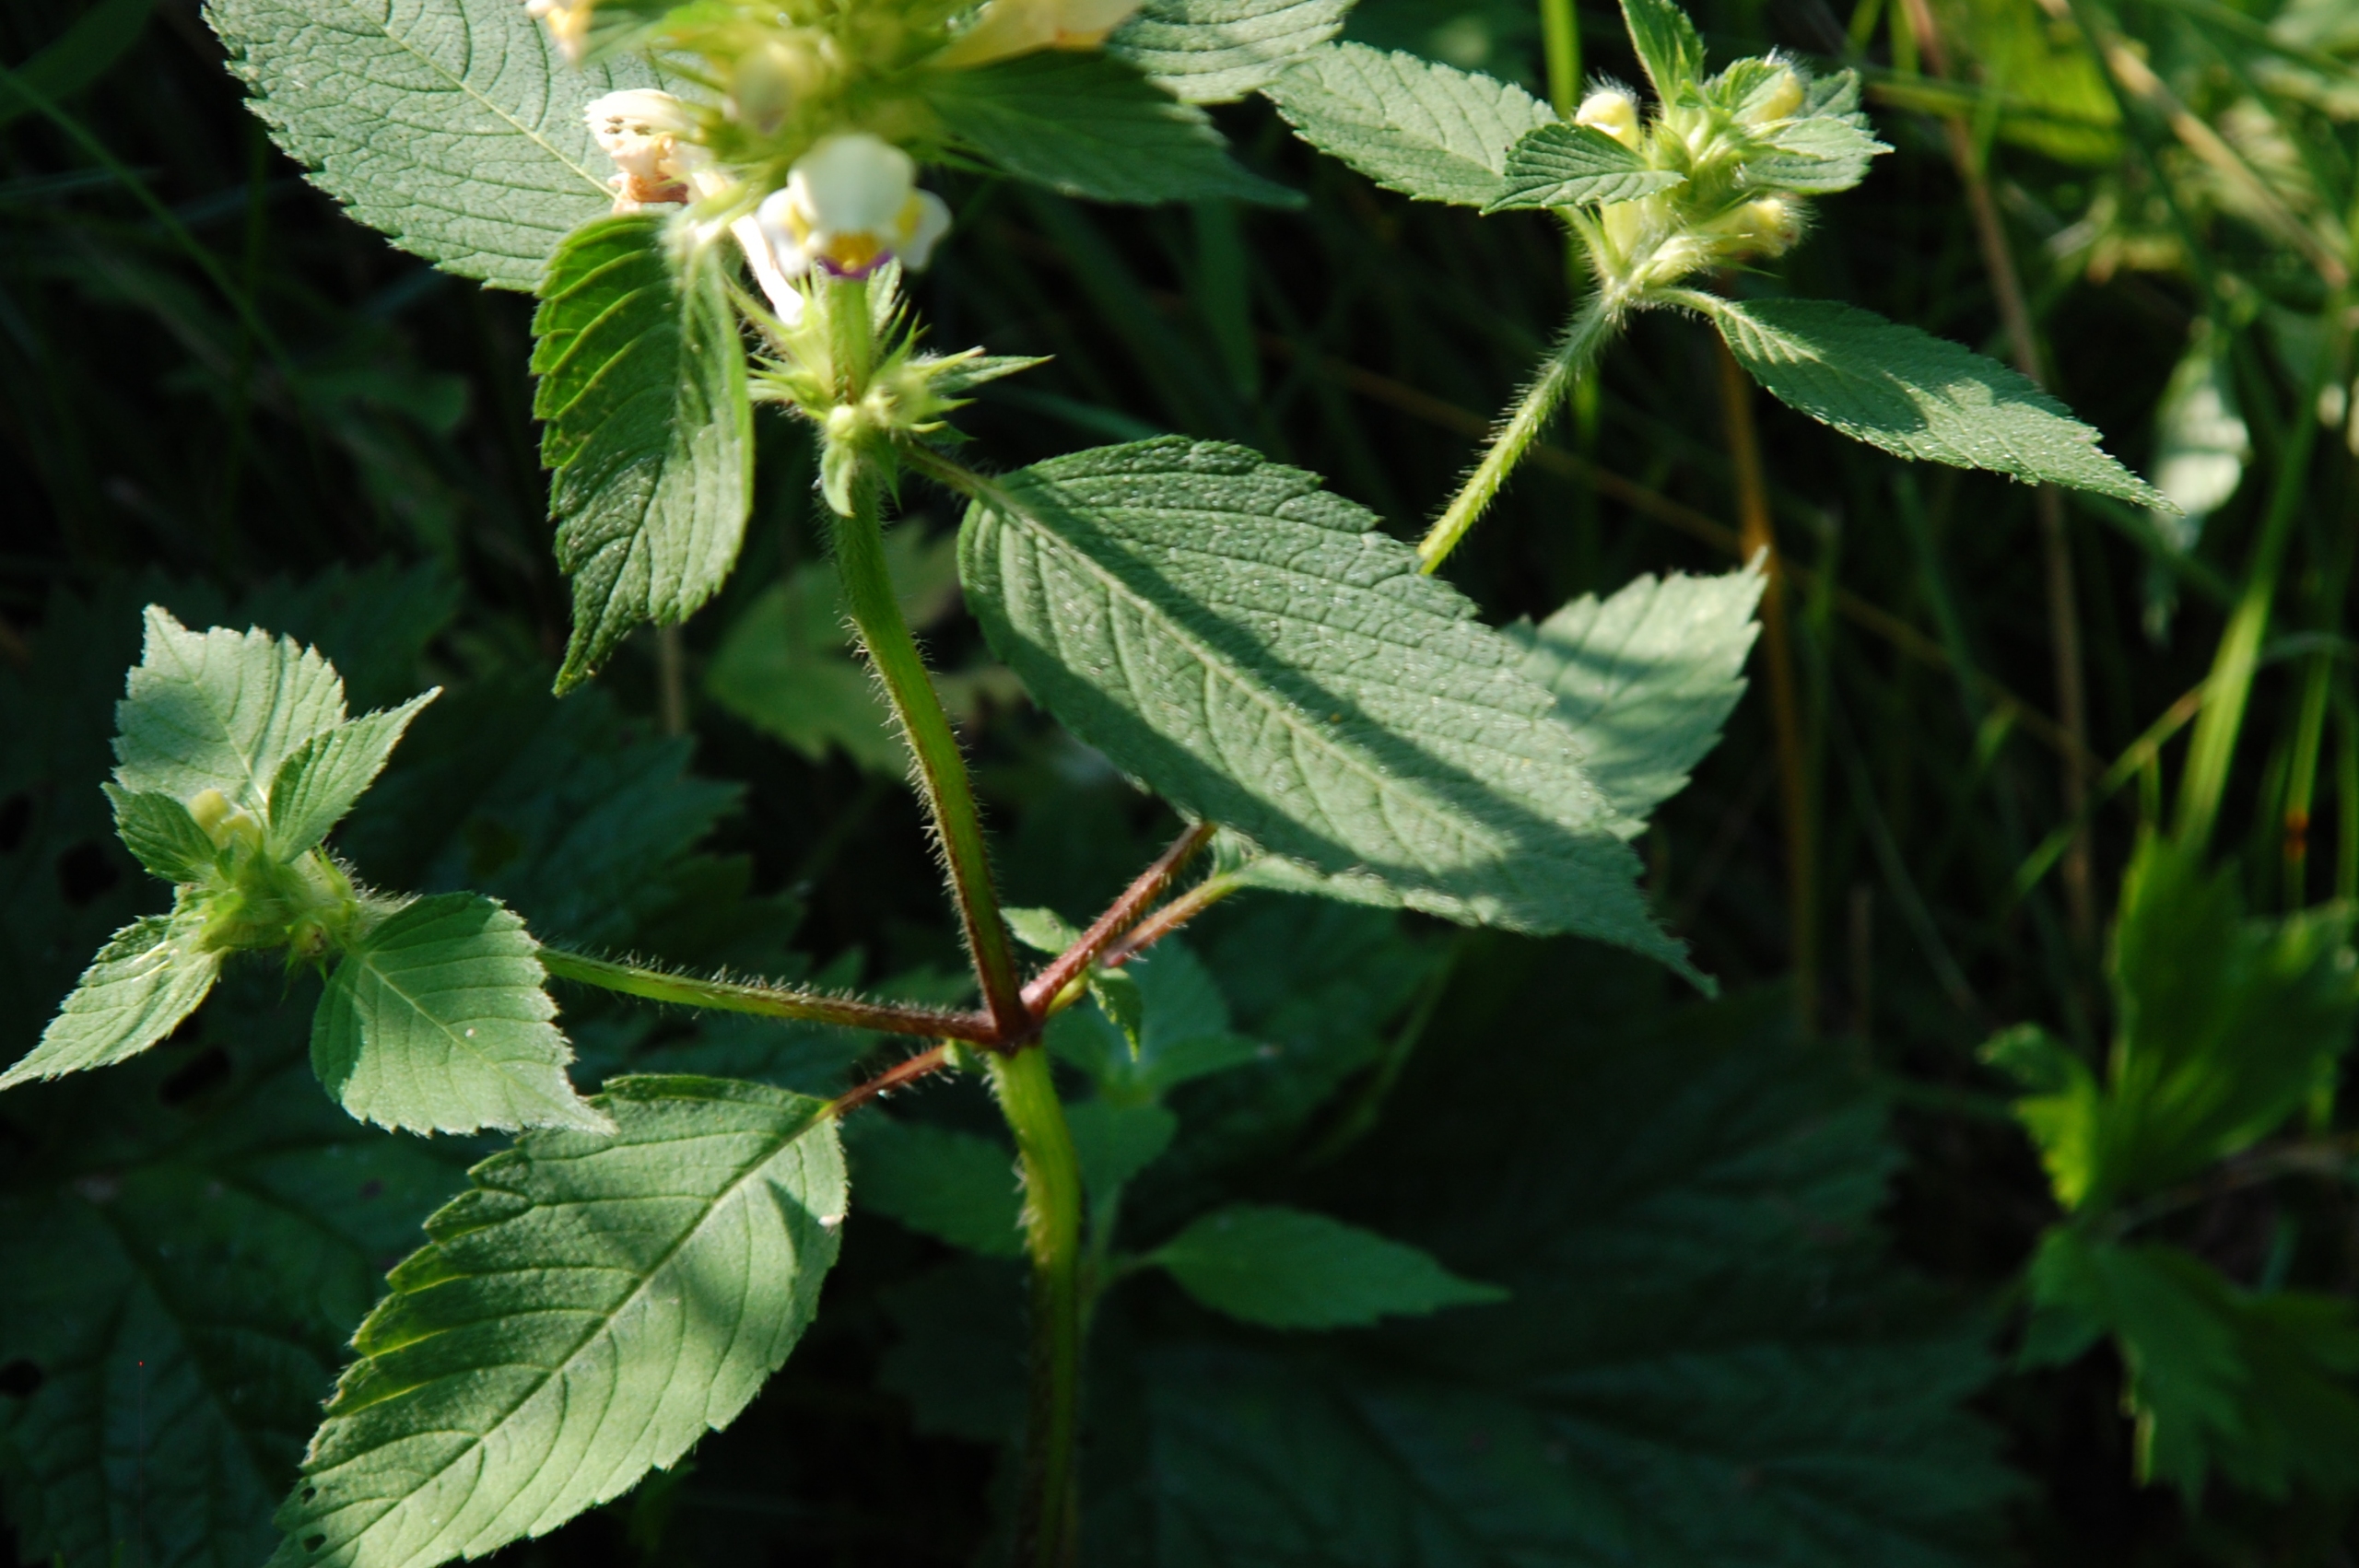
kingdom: Plantae
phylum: Tracheophyta
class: Magnoliopsida
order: Lamiales
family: Lamiaceae
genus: Galeopsis
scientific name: Galeopsis speciosa
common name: Hamp-hanekro
